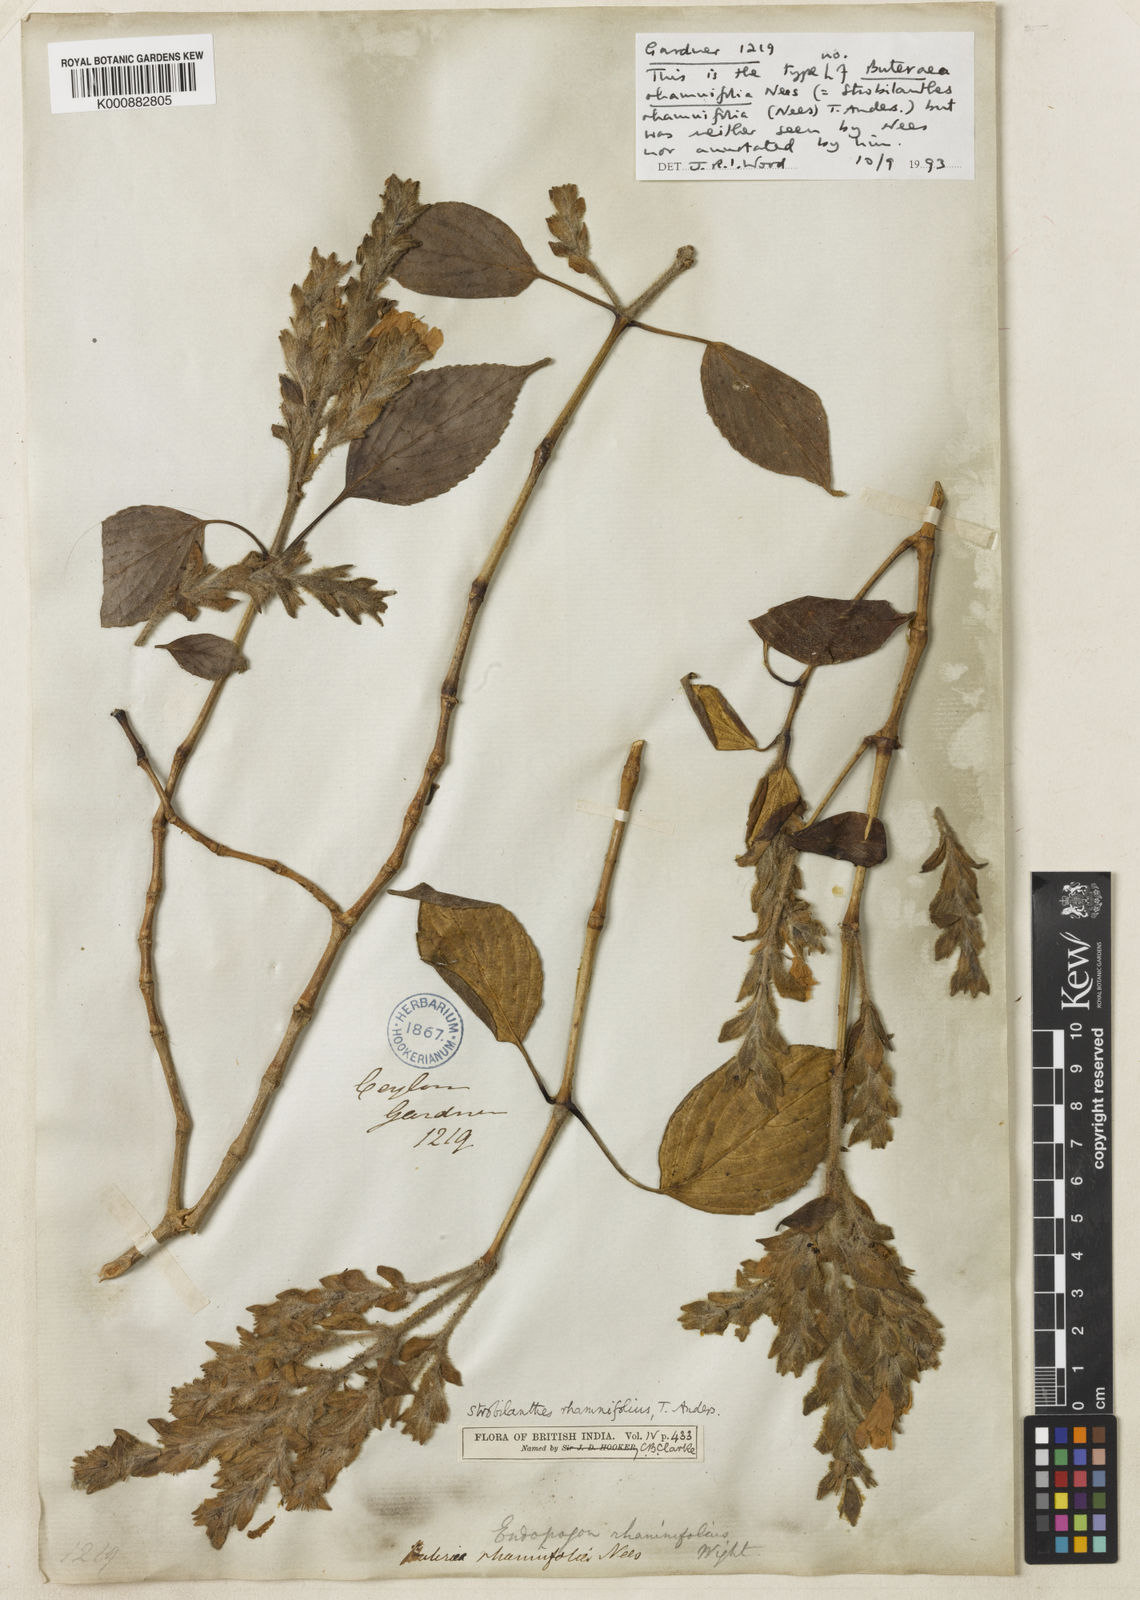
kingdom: Plantae
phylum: Tracheophyta
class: Magnoliopsida
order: Lamiales
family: Acanthaceae
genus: Strobilanthes
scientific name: Strobilanthes rhamnifolia
